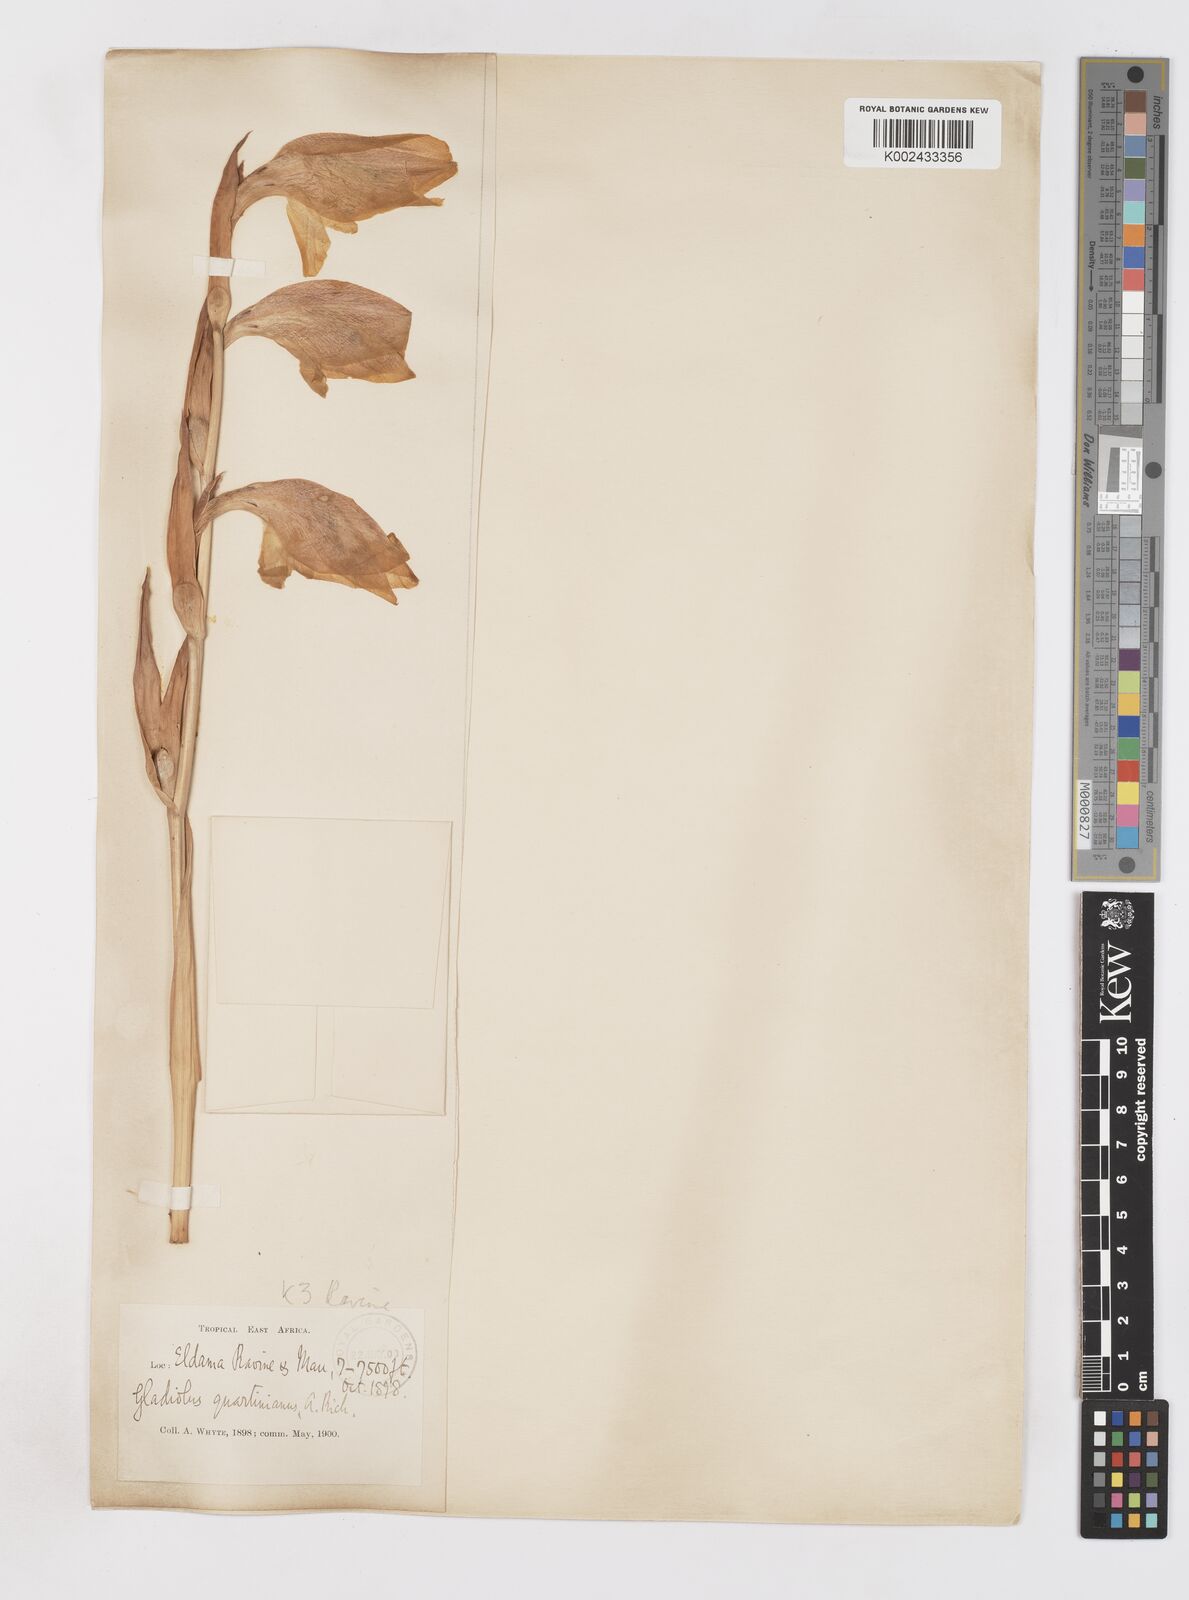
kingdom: Plantae
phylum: Tracheophyta
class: Liliopsida
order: Asparagales
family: Iridaceae
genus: Gladiolus
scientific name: Gladiolus dalenii
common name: Cornflag
